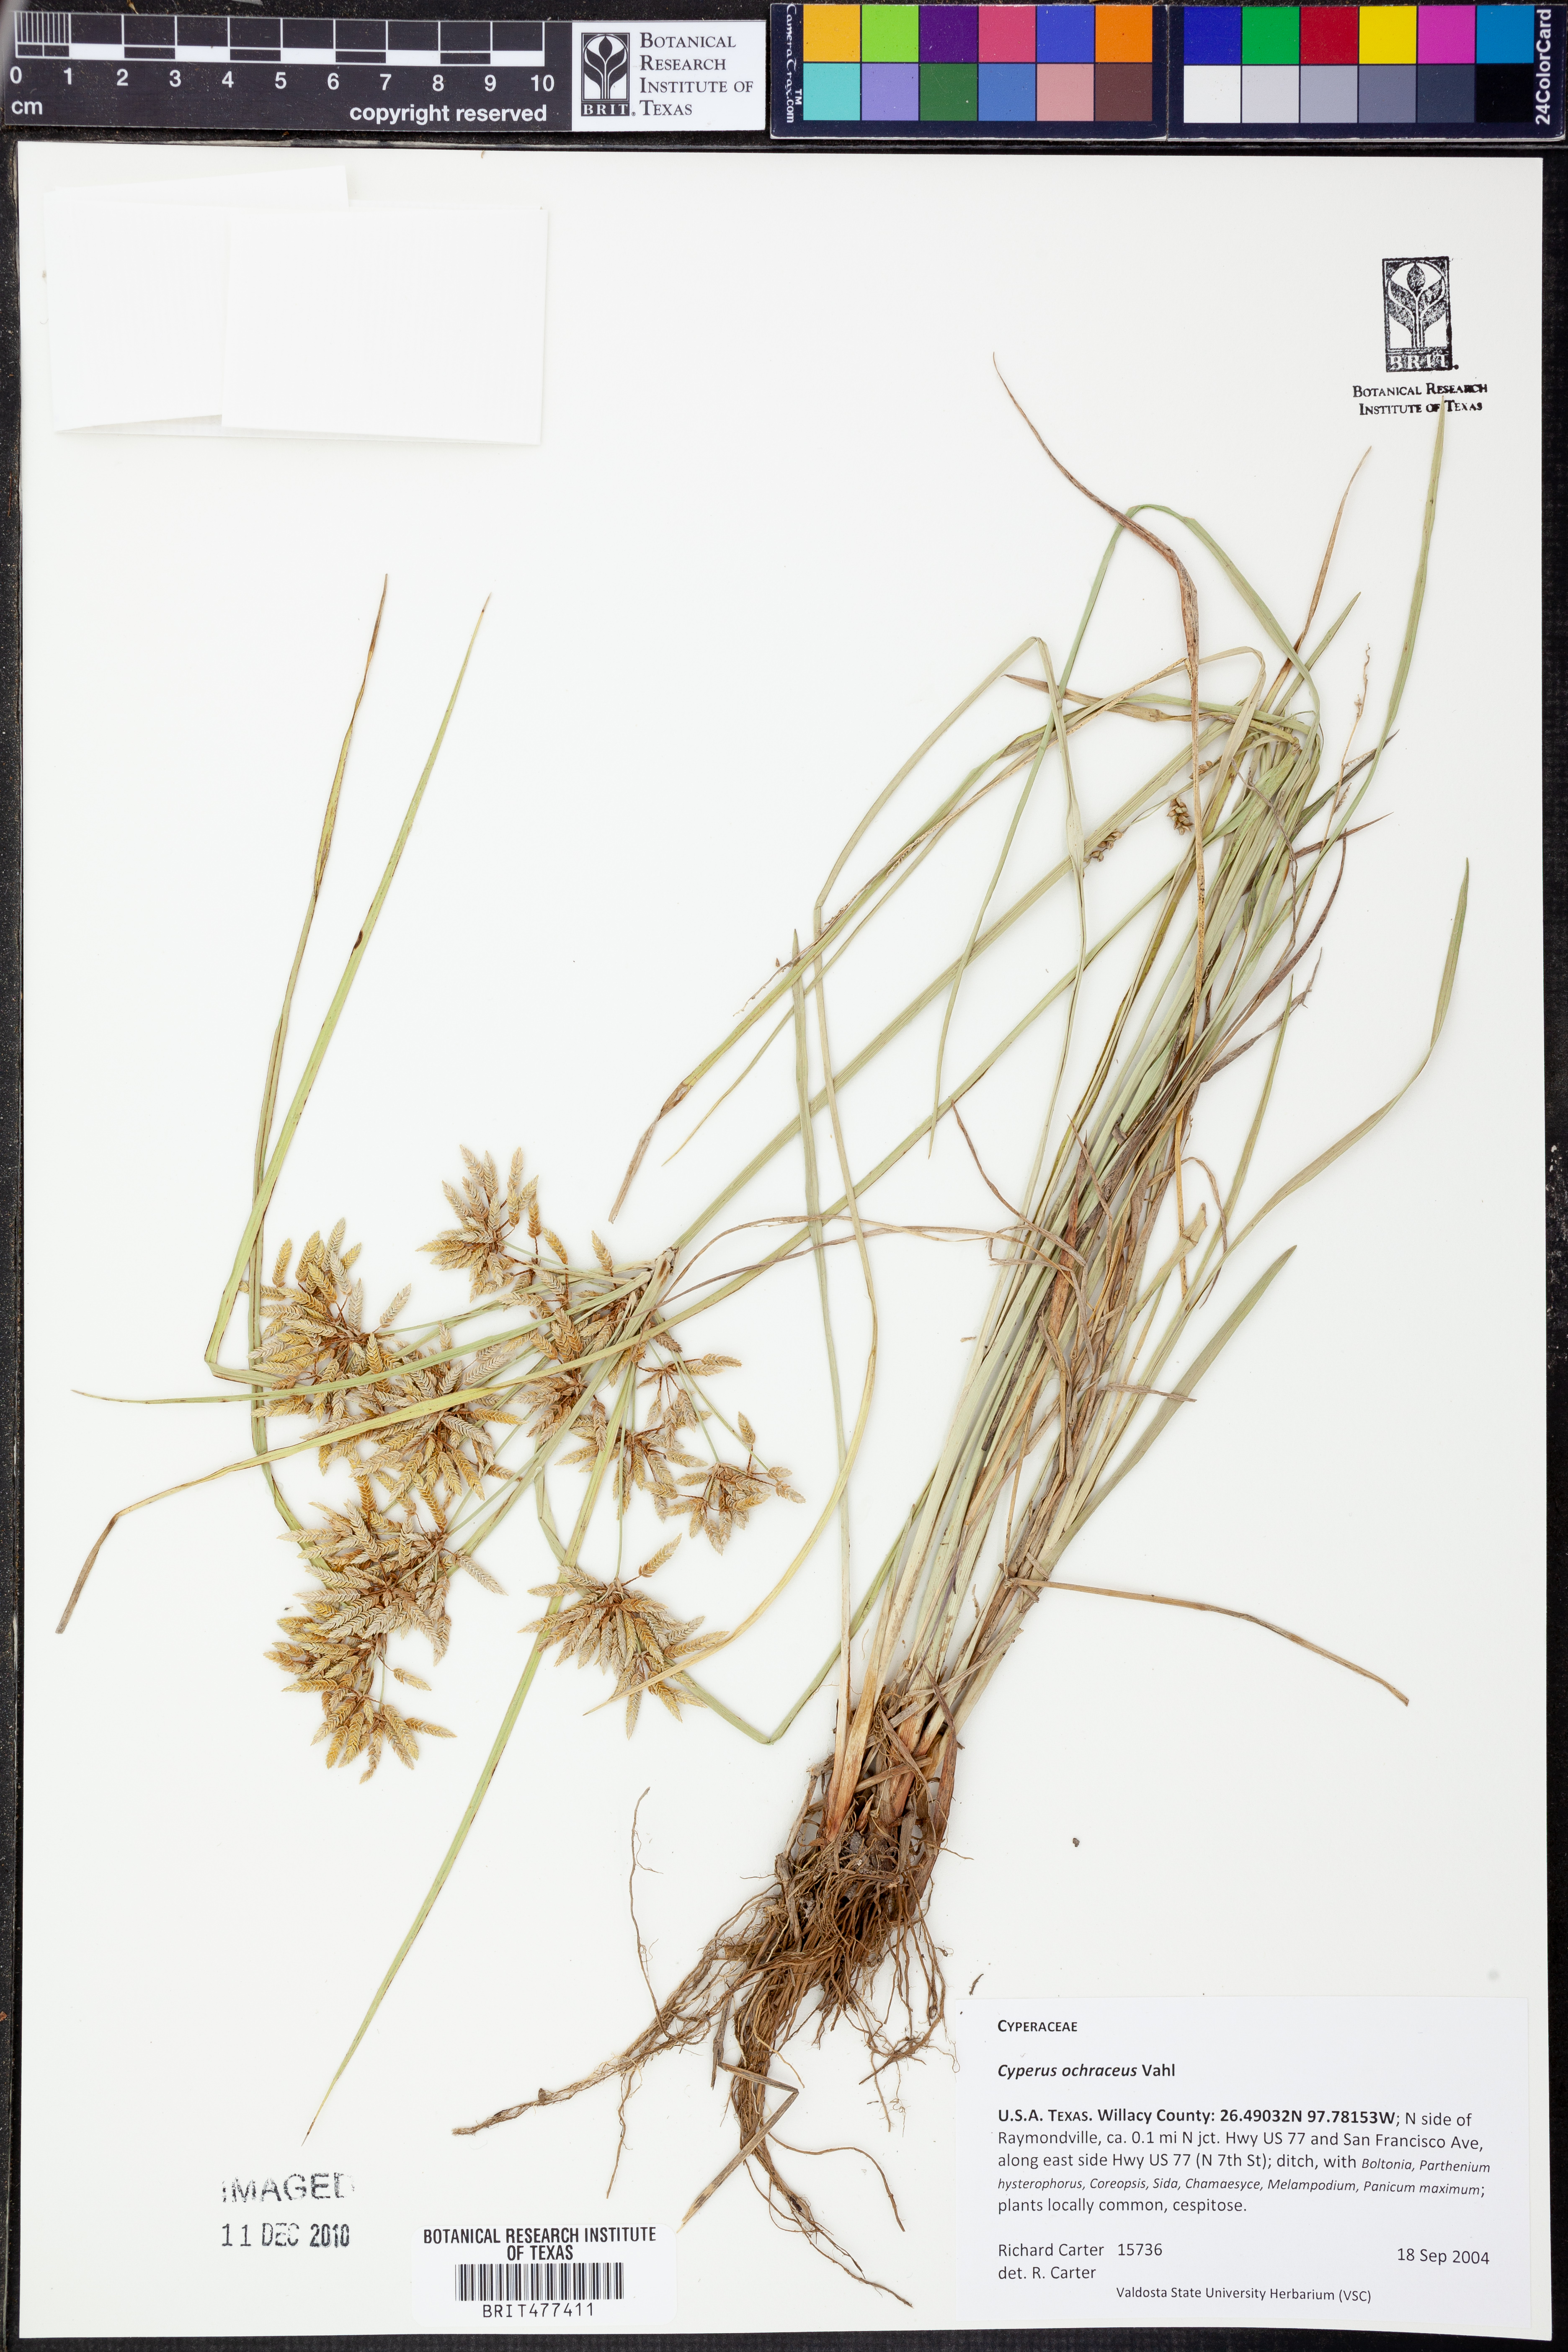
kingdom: Plantae
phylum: Tracheophyta
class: Liliopsida
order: Poales
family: Cyperaceae
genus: Cyperus
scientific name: Cyperus ochraceus
